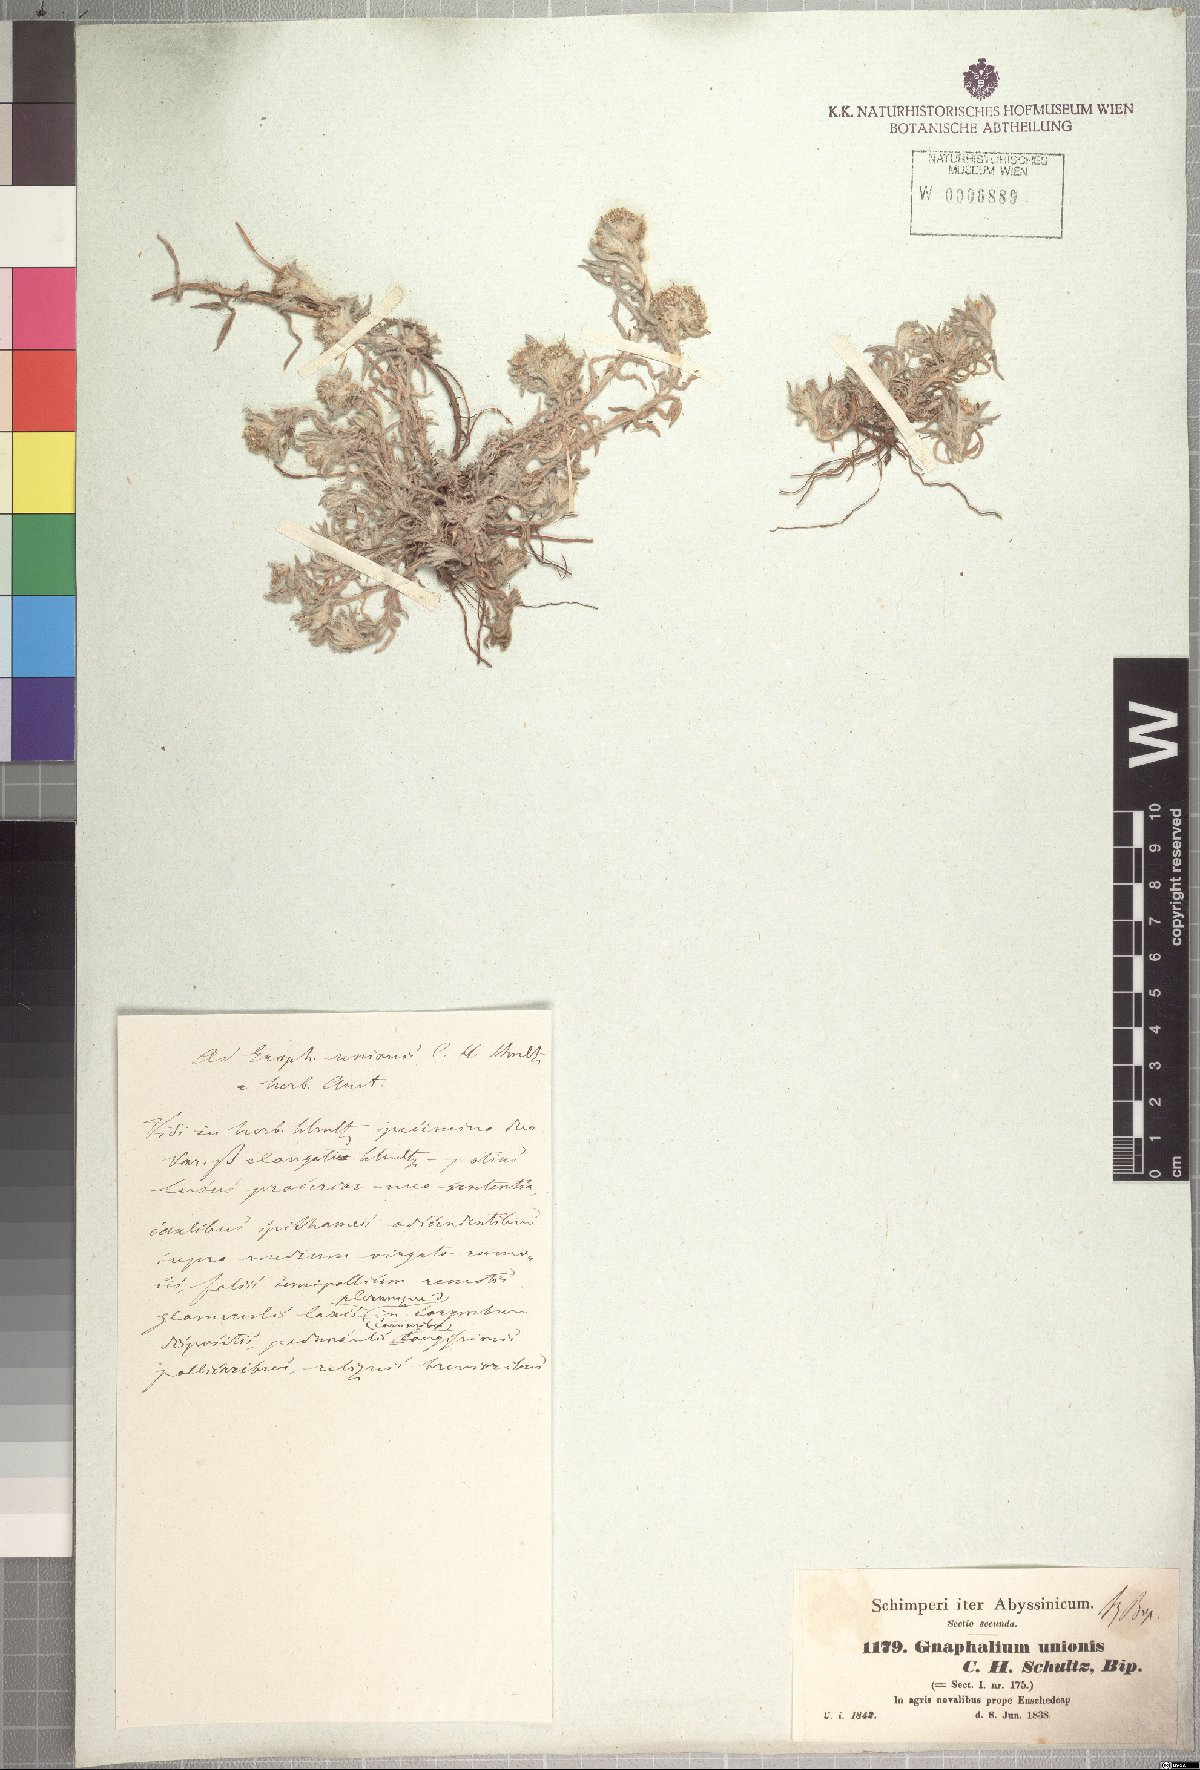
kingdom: Plantae
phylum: Tracheophyta
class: Magnoliopsida
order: Asterales
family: Asteraceae
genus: Gnaphalium
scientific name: Gnaphalium unionis
